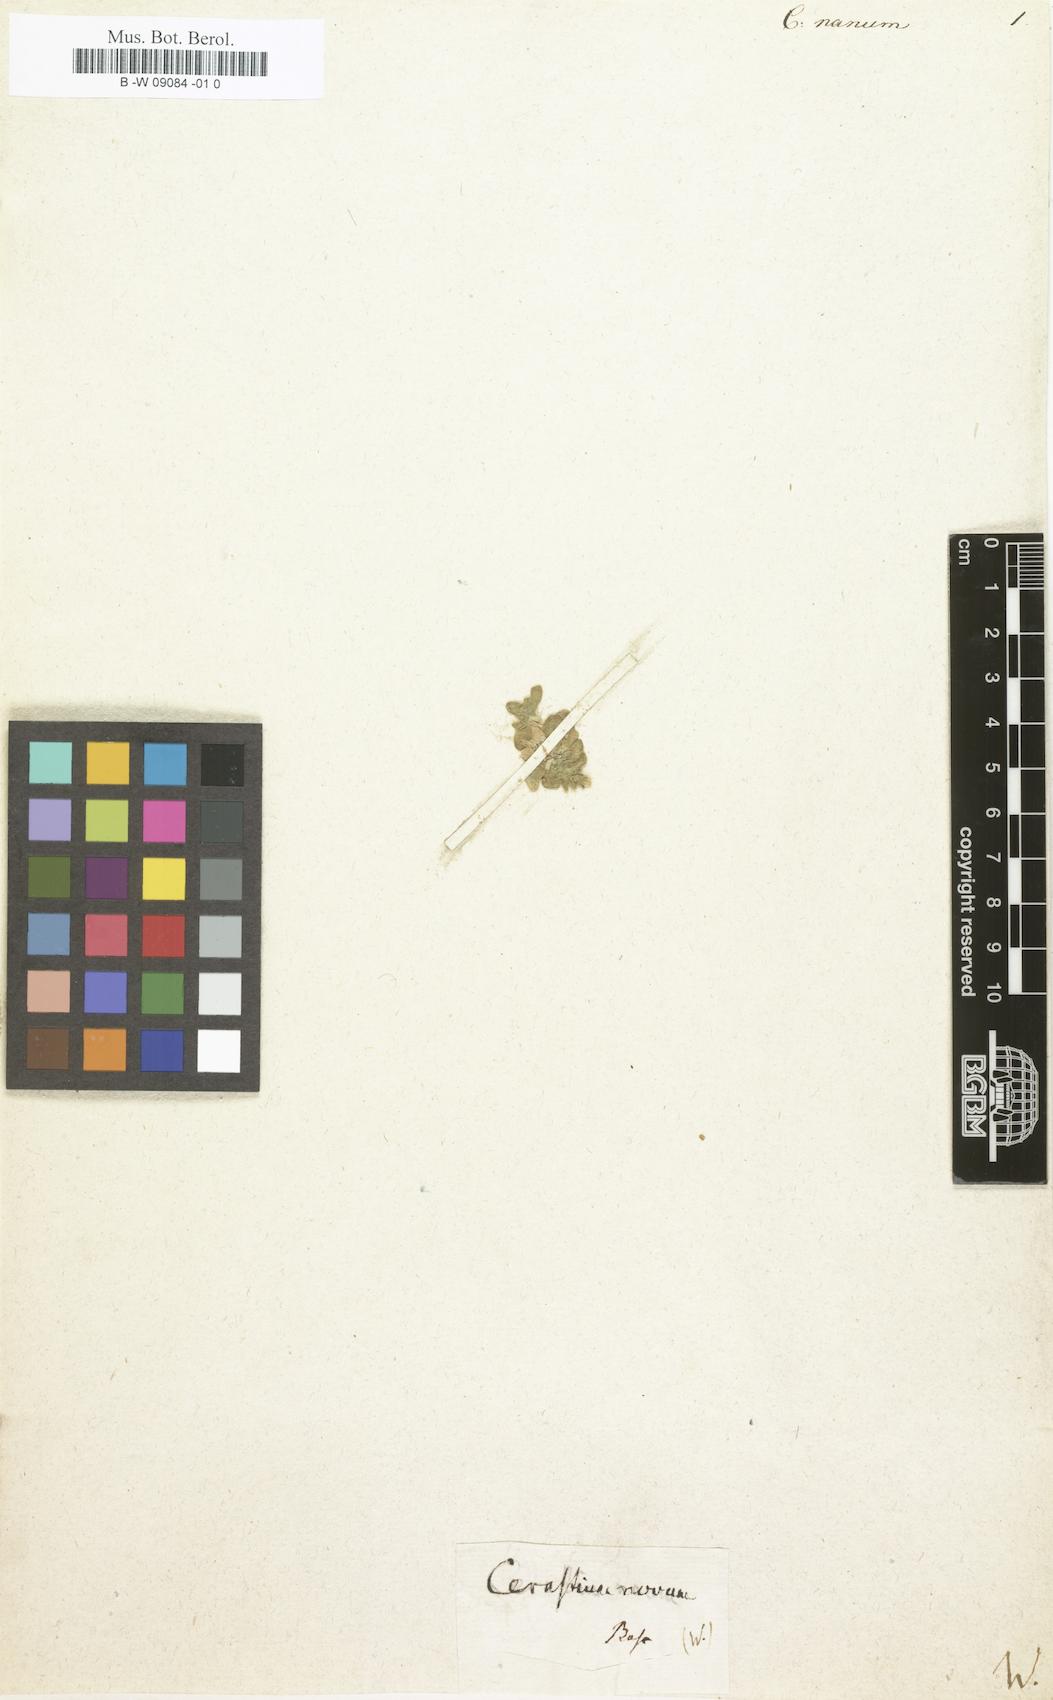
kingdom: Plantae
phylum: Tracheophyta
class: Magnoliopsida
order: Caryophyllales
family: Caryophyllaceae
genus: Cerastium
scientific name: Cerastium nanum
